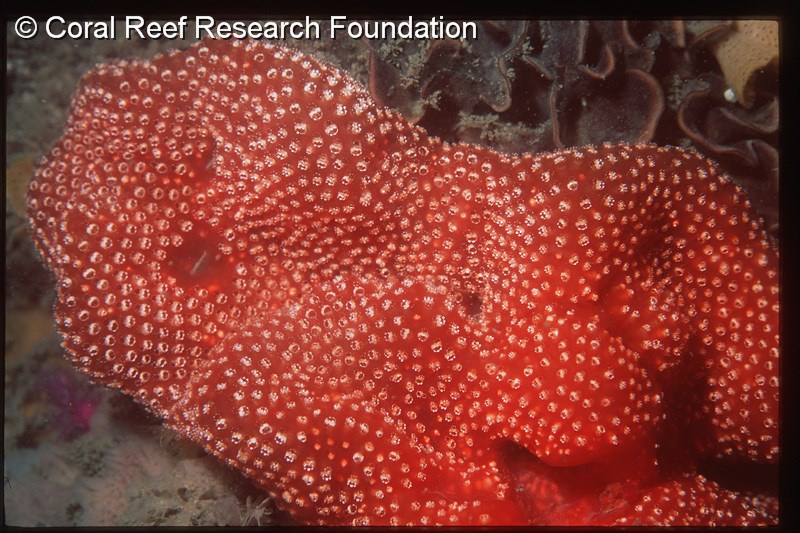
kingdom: Animalia
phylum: Chordata
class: Ascidiacea
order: Aplousobranchia
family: Polycitoridae
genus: Eudistoma
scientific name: Eudistoma
